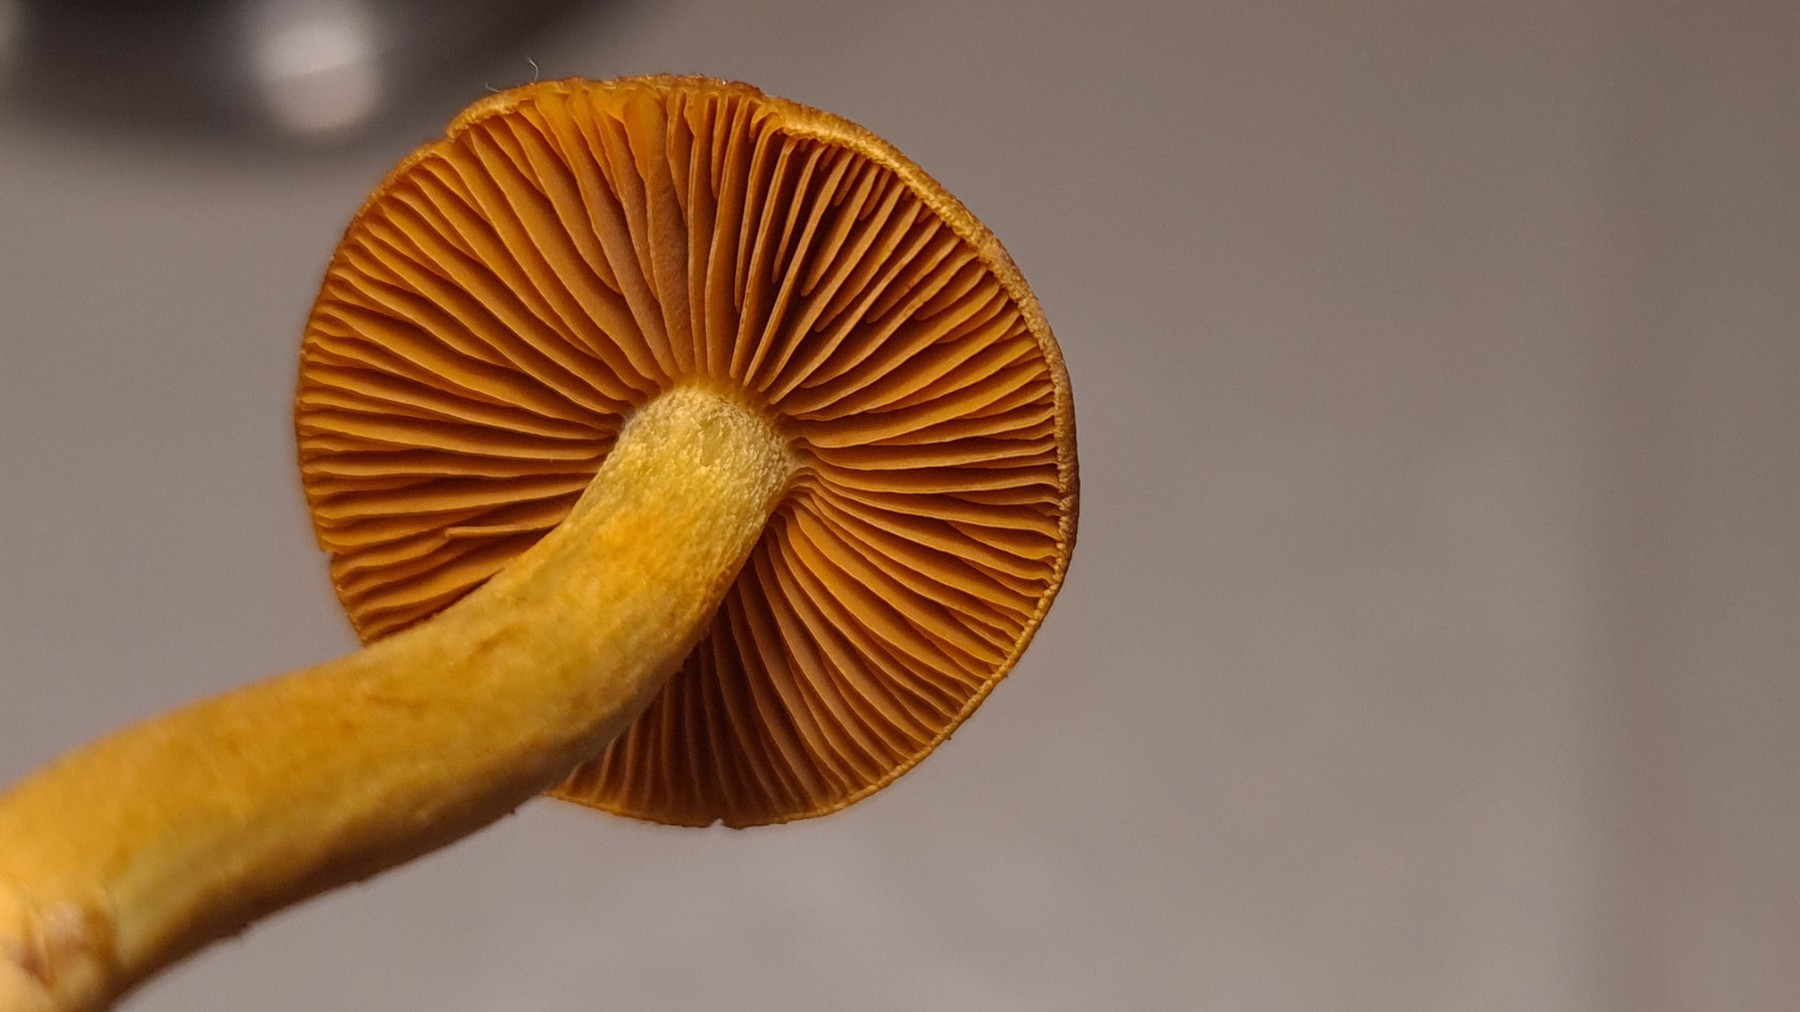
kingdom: Fungi
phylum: Basidiomycota
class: Agaricomycetes
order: Agaricales
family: Cortinariaceae
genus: Cortinarius
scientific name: Cortinarius malicorius
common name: grønkødet slørhat
